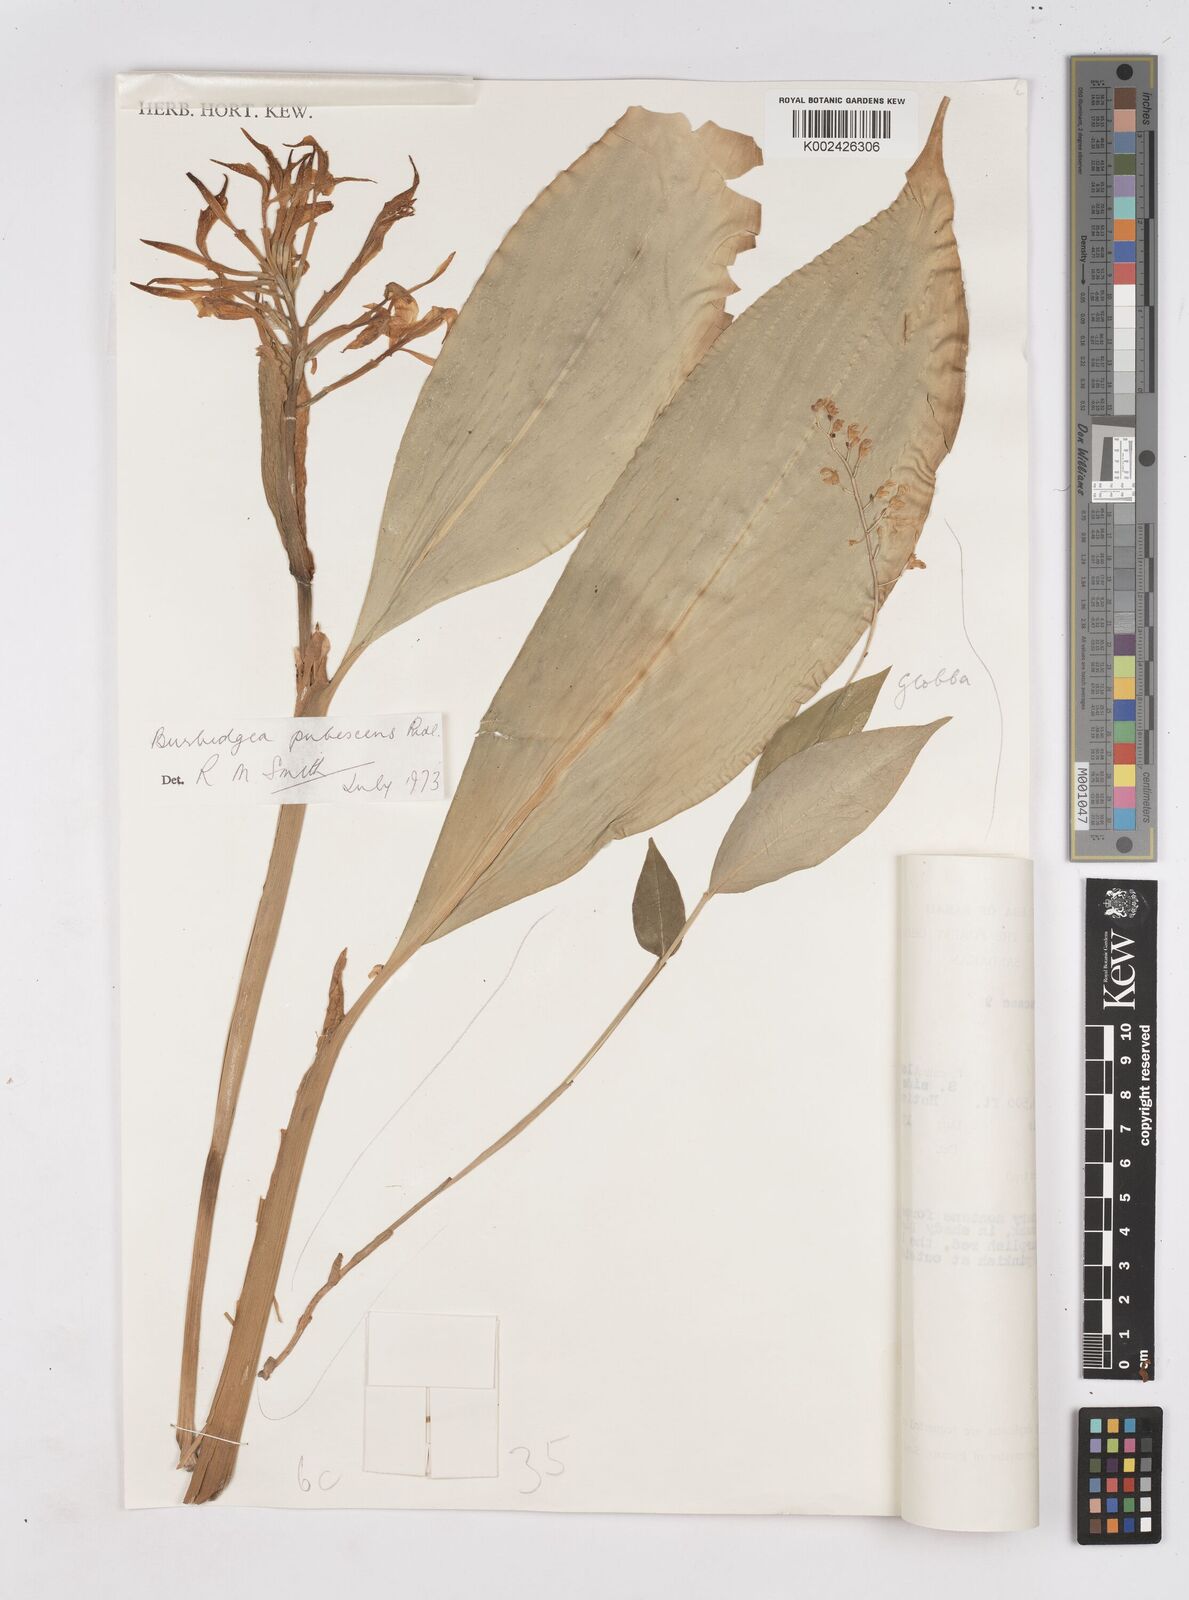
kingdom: Plantae
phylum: Tracheophyta
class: Liliopsida
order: Zingiberales
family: Zingiberaceae
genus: Burbidgea
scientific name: Burbidgea schizocheila
